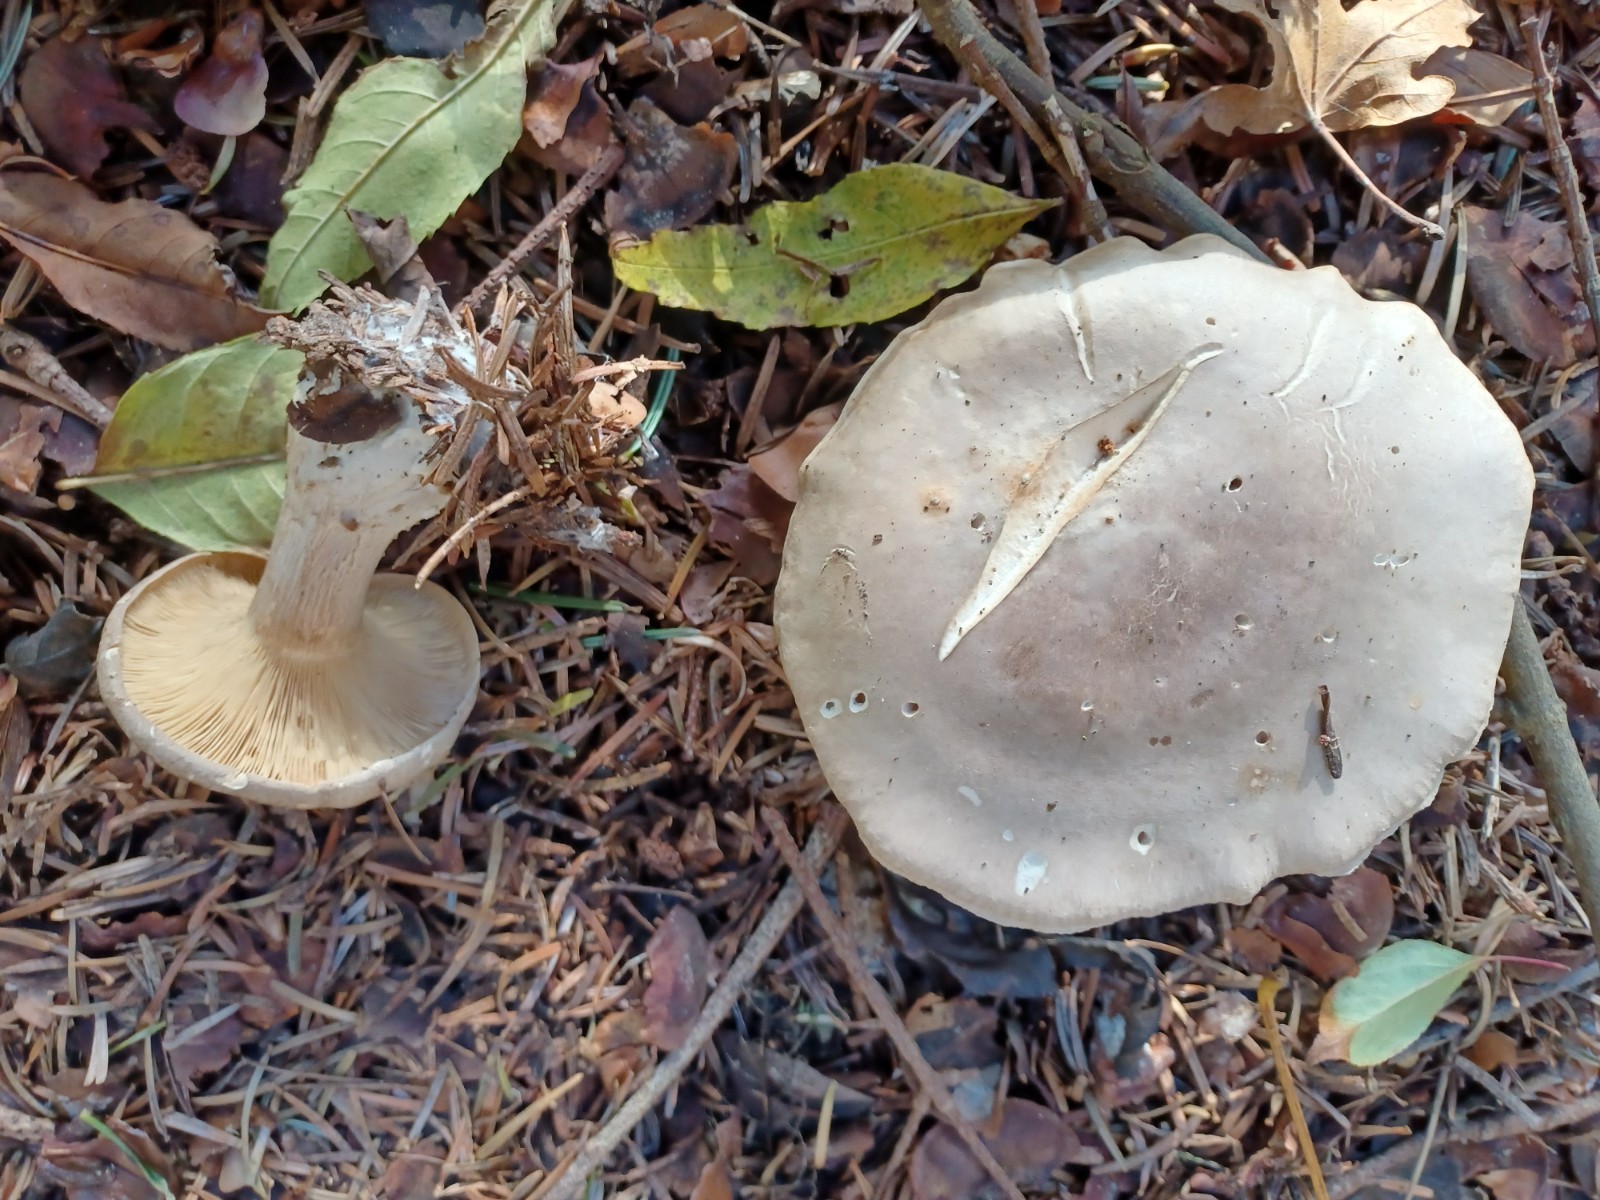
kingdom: Fungi
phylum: Basidiomycota
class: Agaricomycetes
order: Agaricales
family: Tricholomataceae
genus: Clitocybe
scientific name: Clitocybe nebularis
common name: tåge-tragthat
